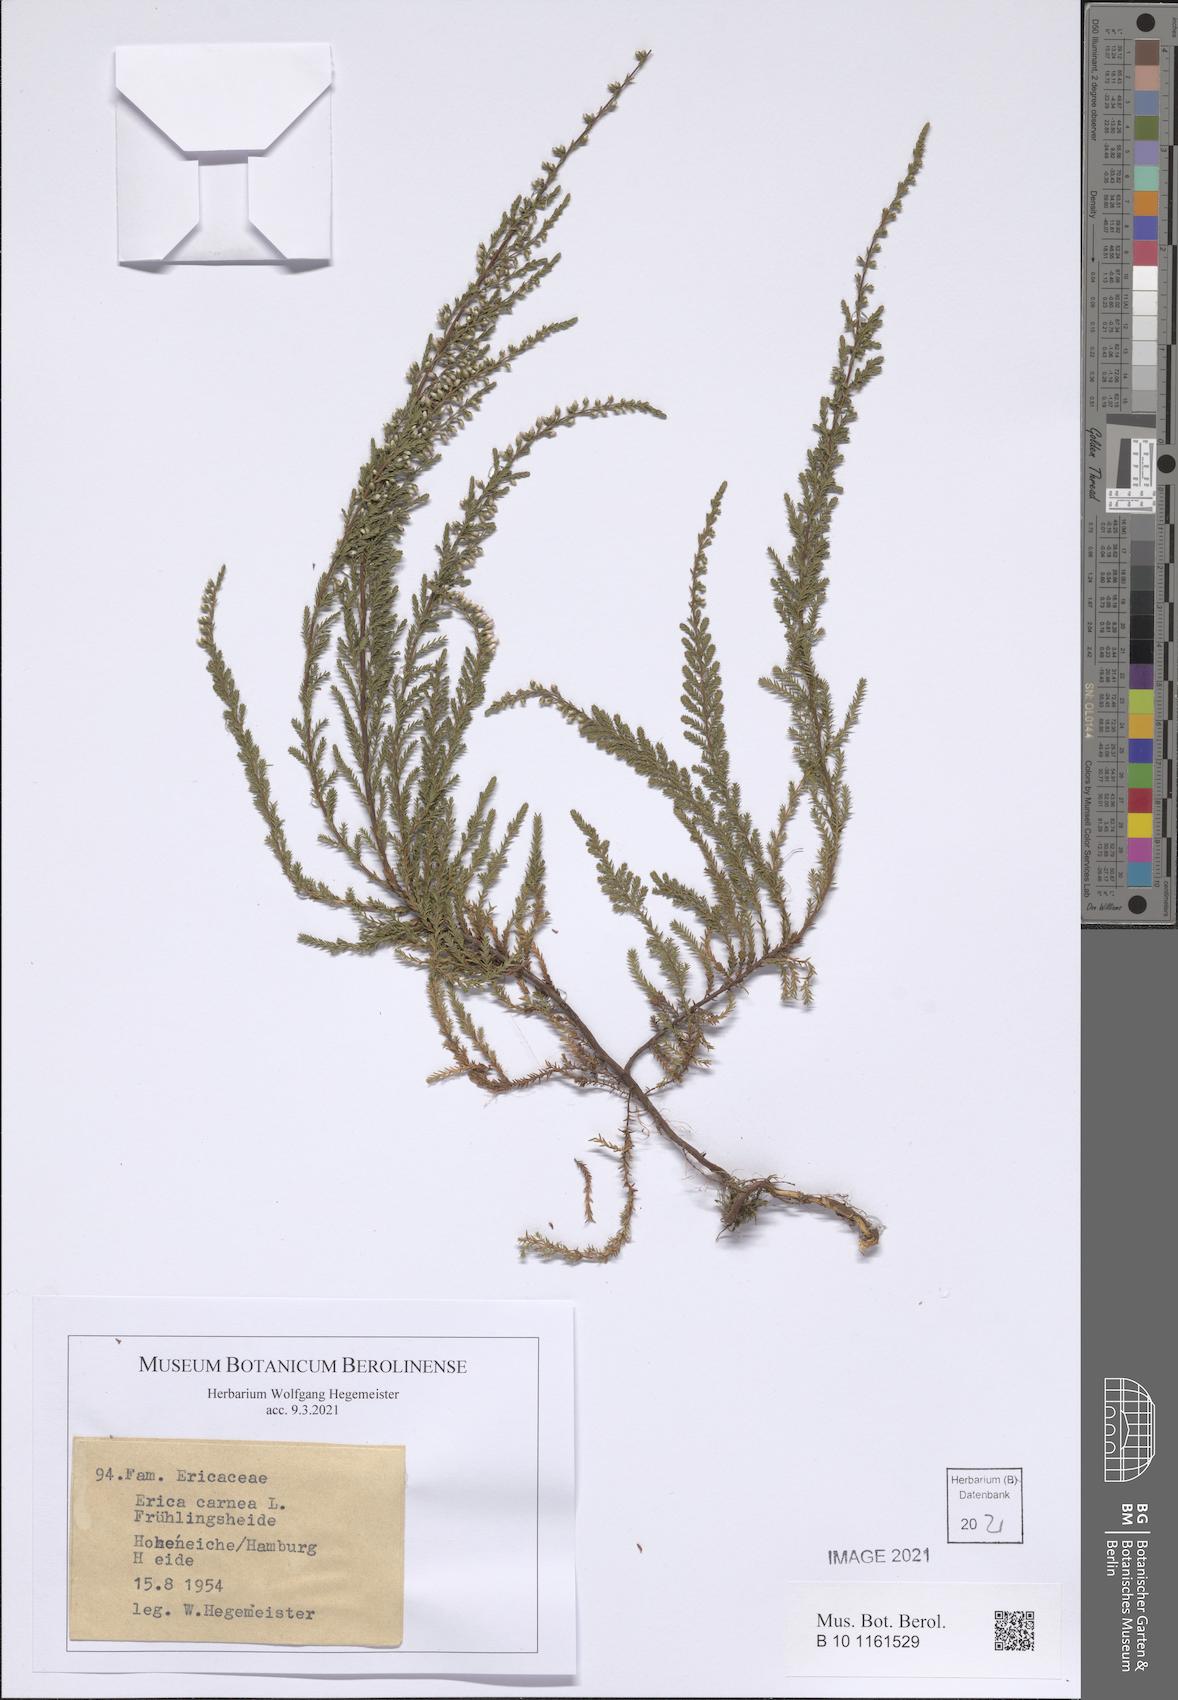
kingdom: Plantae
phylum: Tracheophyta
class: Magnoliopsida
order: Ericales
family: Ericaceae
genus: Erica
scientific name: Erica carnea
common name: Winter heath
